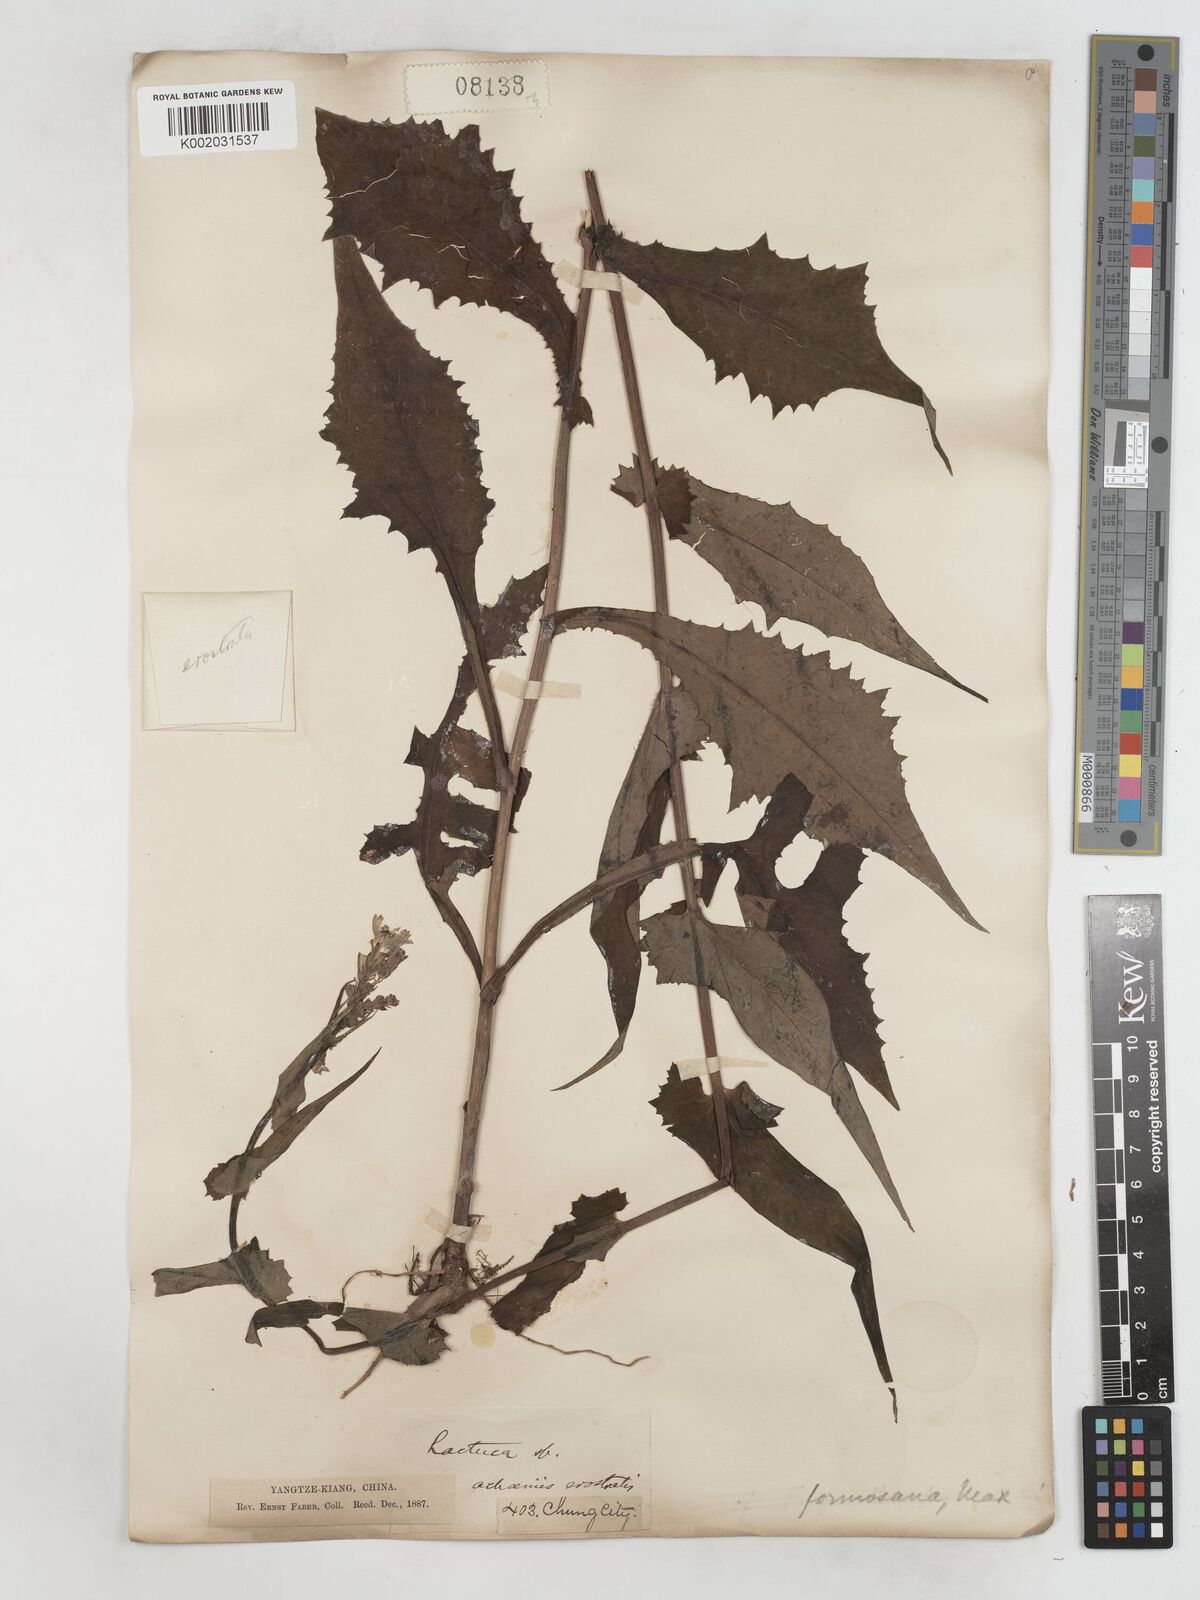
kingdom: Plantae
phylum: Tracheophyta
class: Magnoliopsida
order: Asterales
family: Asteraceae
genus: Lactuca
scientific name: Lactuca formosana
